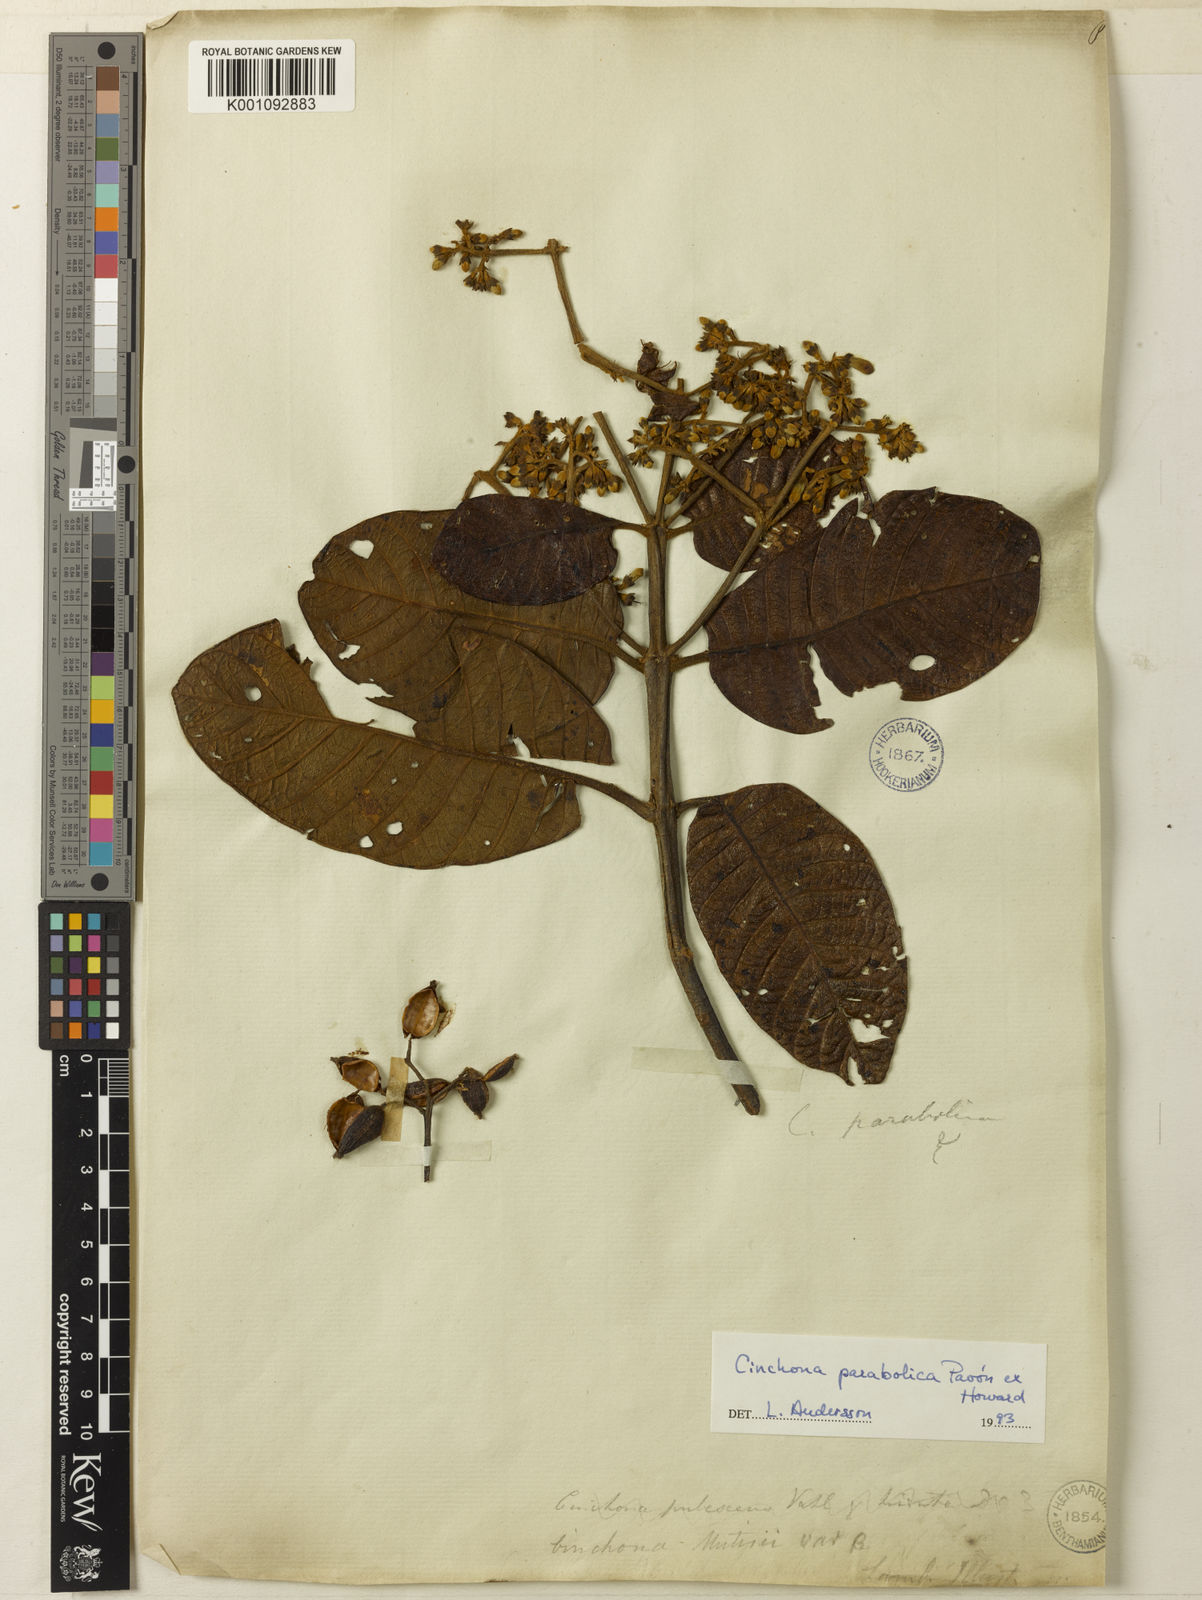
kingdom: Plantae
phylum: Tracheophyta
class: Magnoliopsida
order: Gentianales
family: Rubiaceae
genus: Cinchona
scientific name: Cinchona
